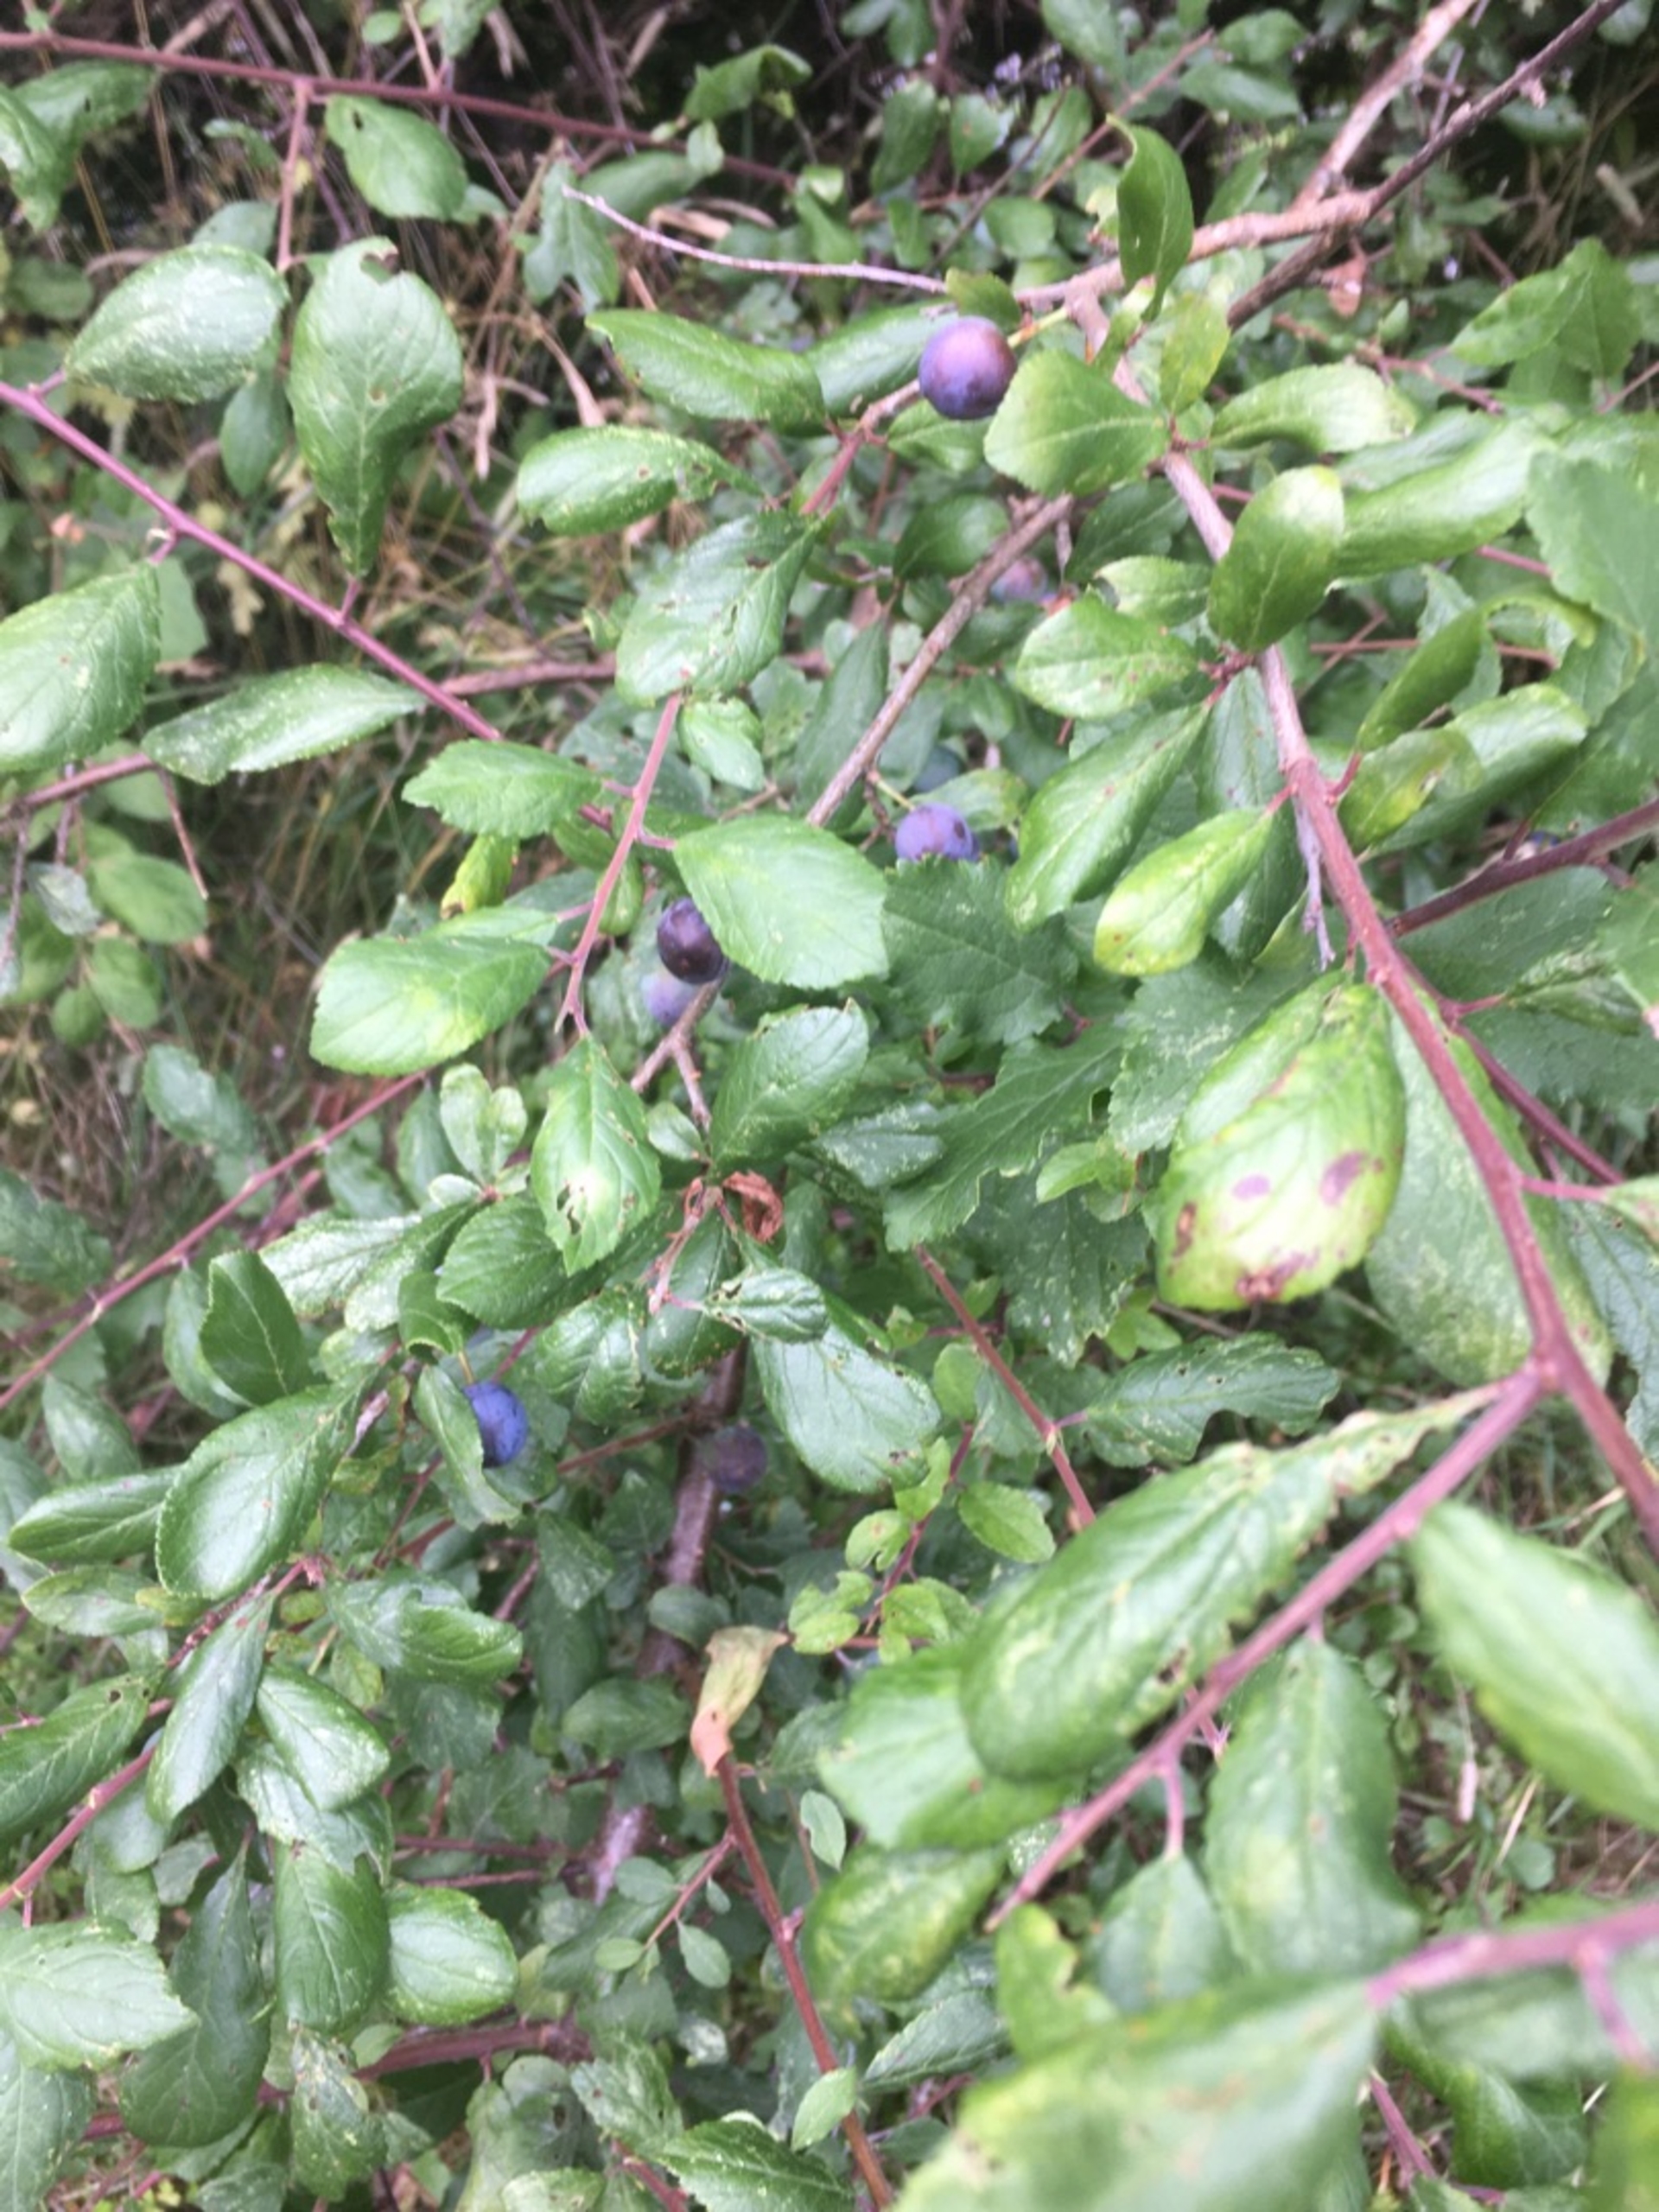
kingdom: Plantae
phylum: Tracheophyta
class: Magnoliopsida
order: Rosales
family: Rosaceae
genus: Prunus
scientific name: Prunus spinosa
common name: Slåen
